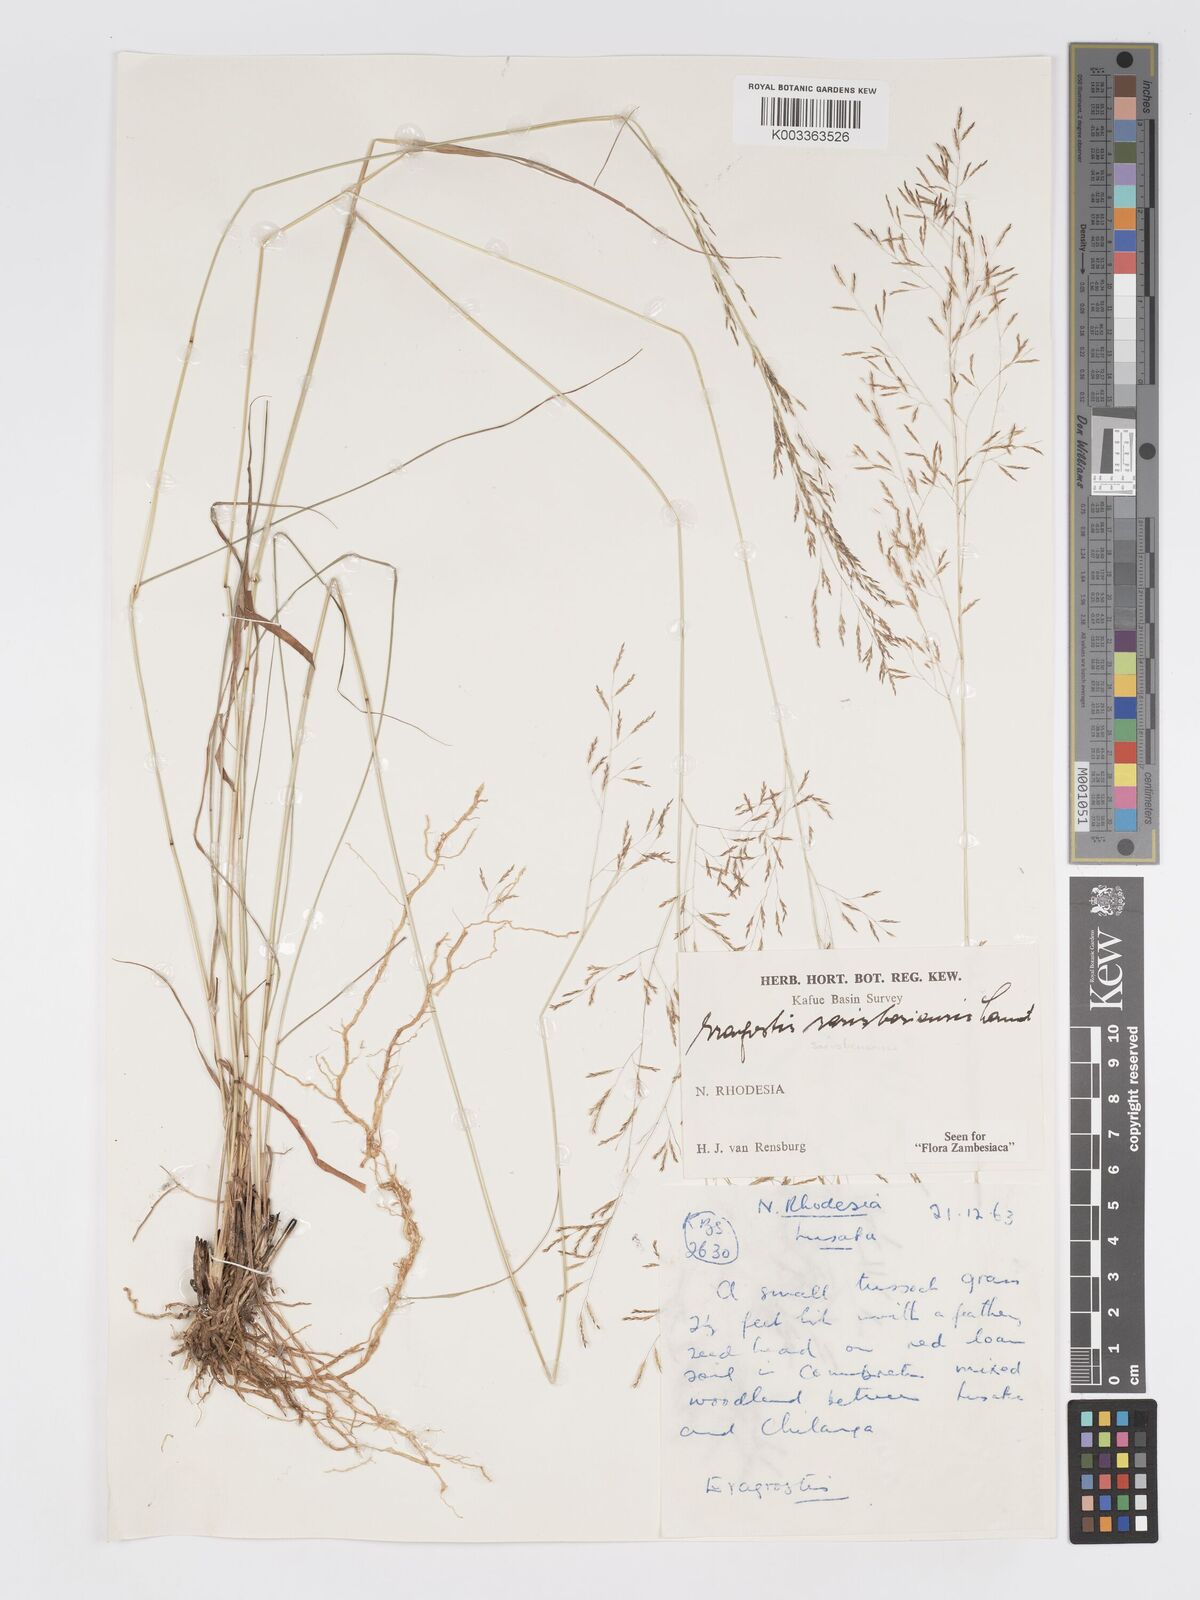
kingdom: Plantae
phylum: Tracheophyta
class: Liliopsida
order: Poales
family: Poaceae
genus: Eragrostis
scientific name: Eragrostis saresberiensis
